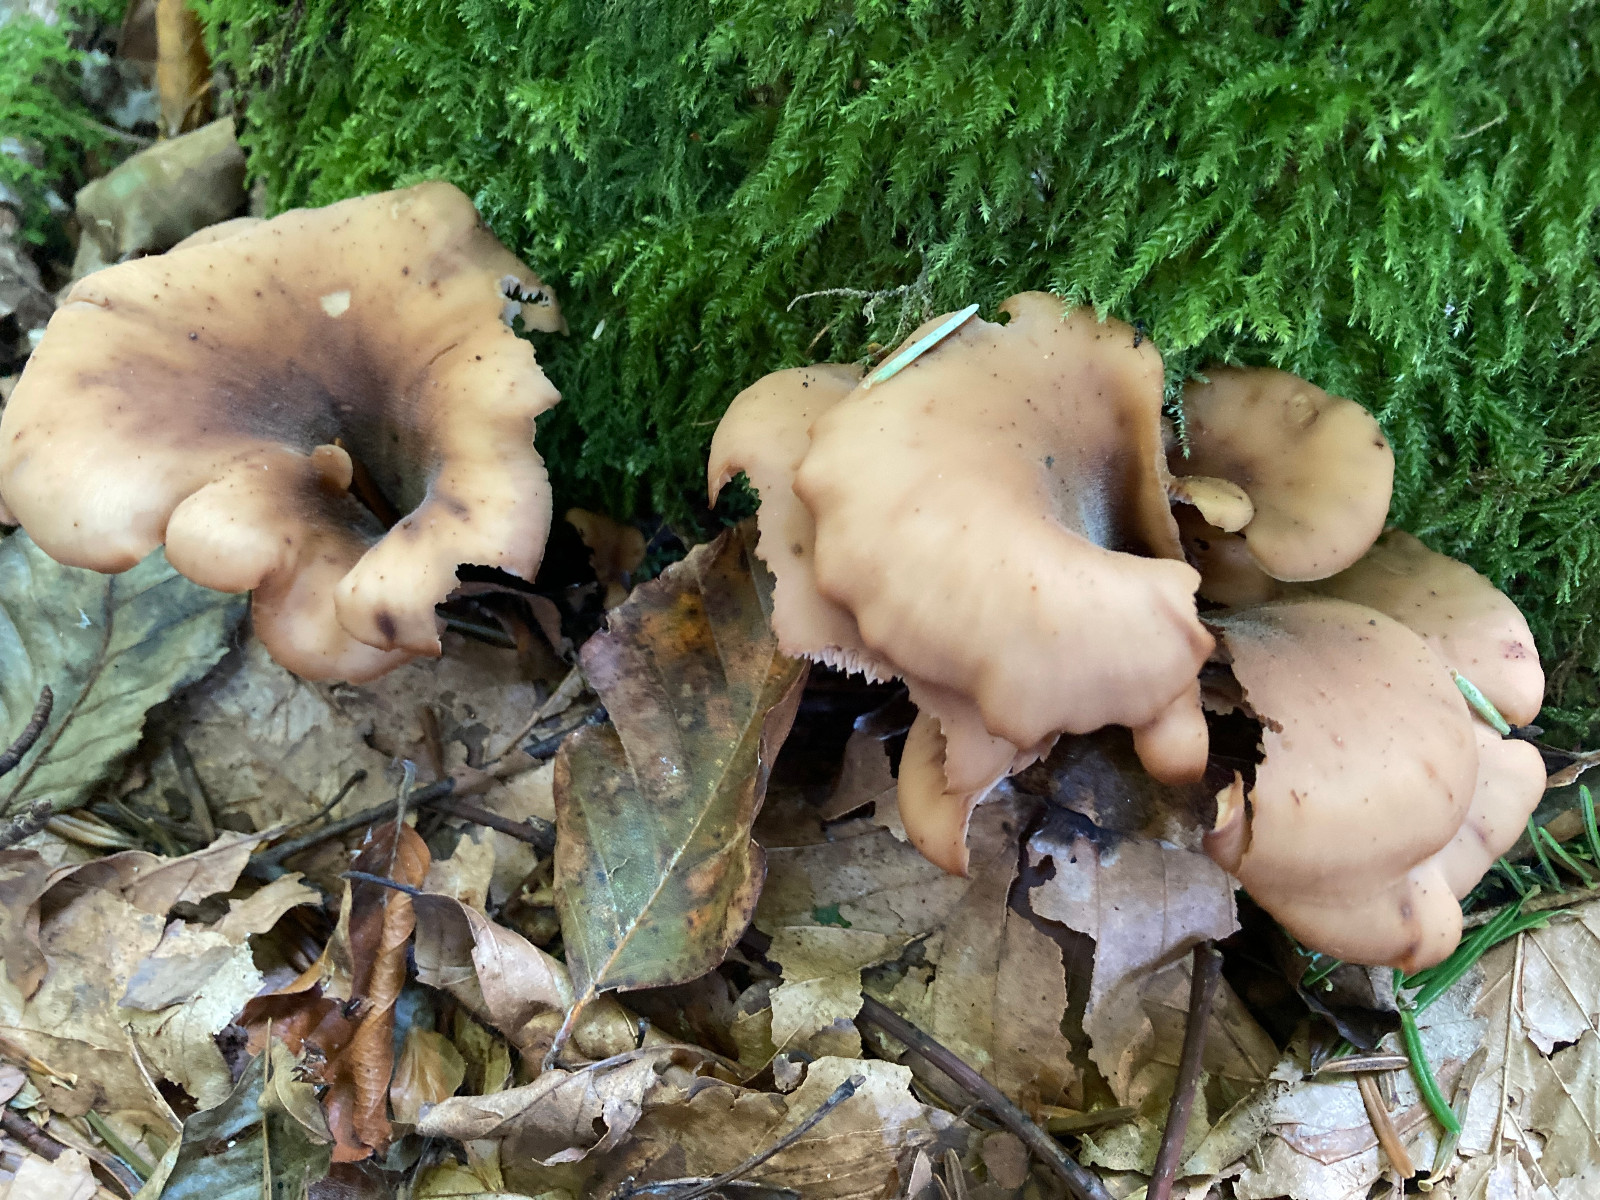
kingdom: Fungi
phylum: Basidiomycota
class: Agaricomycetes
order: Russulales
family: Auriscalpiaceae
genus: Lentinellus
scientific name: Lentinellus cochleatus
